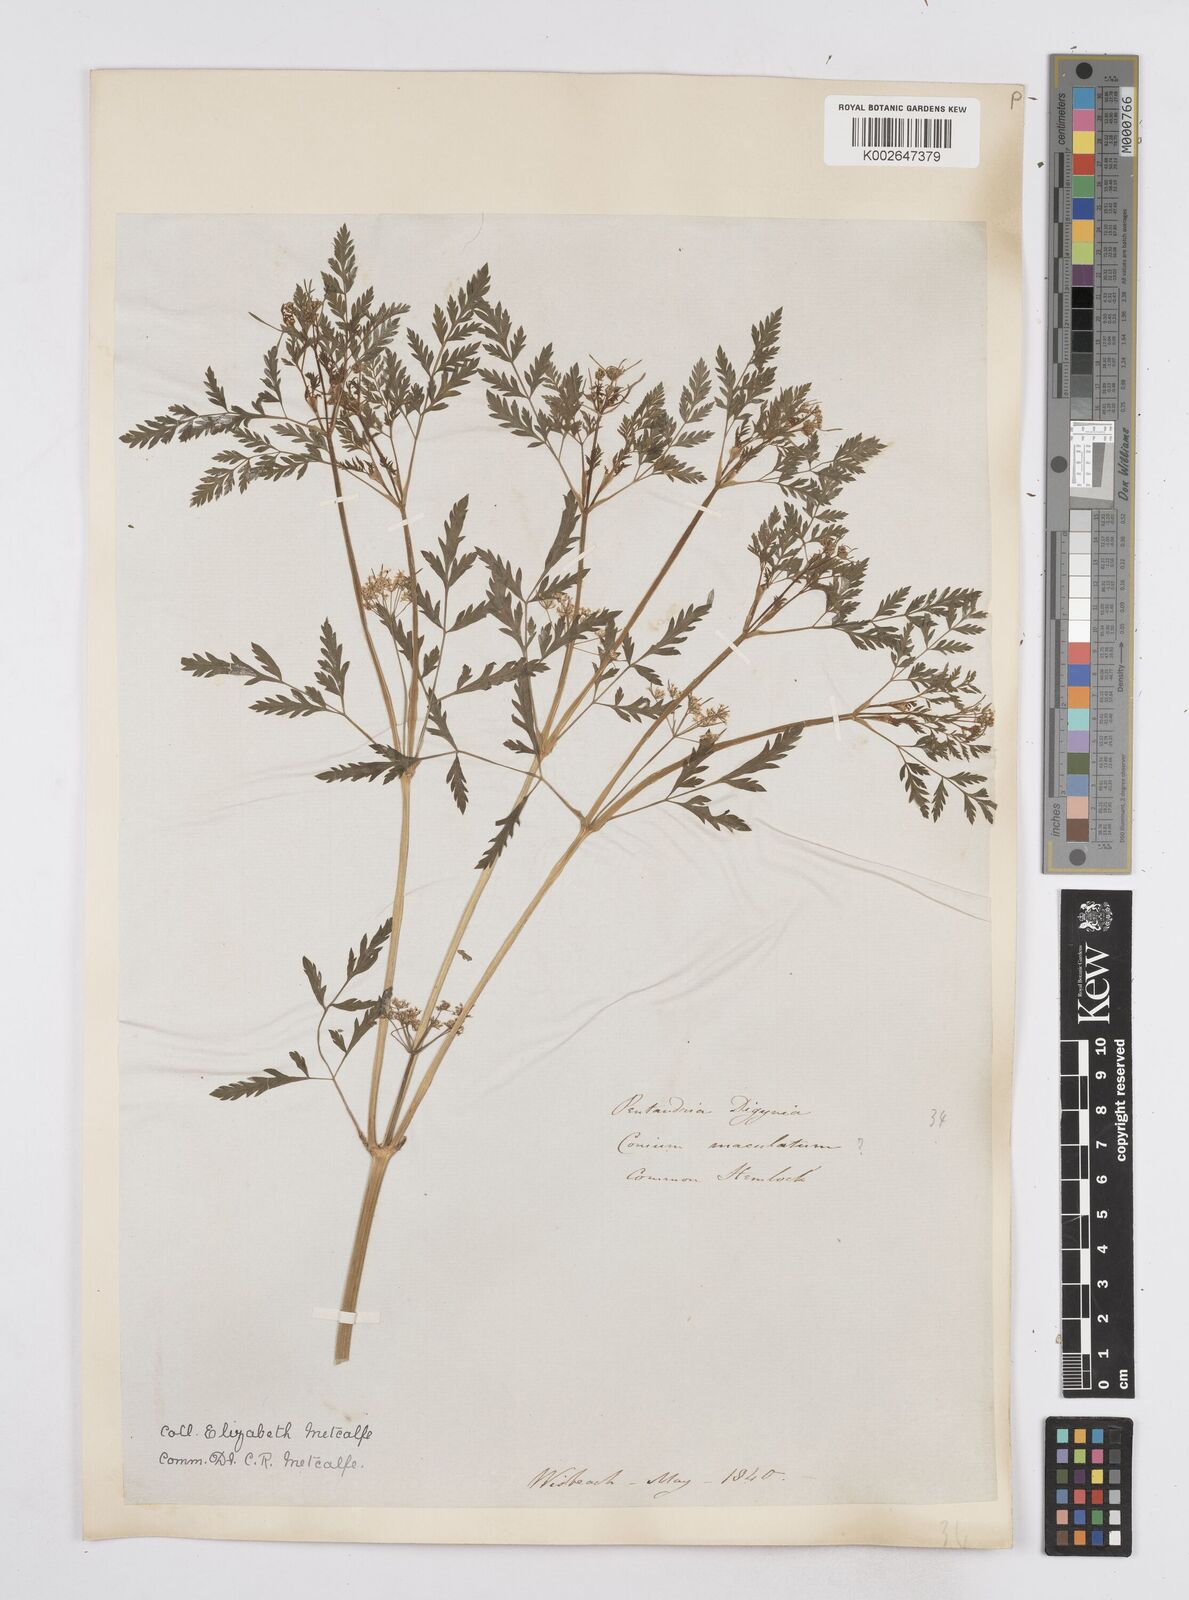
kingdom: Plantae
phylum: Tracheophyta
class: Magnoliopsida
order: Apiales
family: Apiaceae
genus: Conium
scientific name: Conium maculatum
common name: Hemlock
